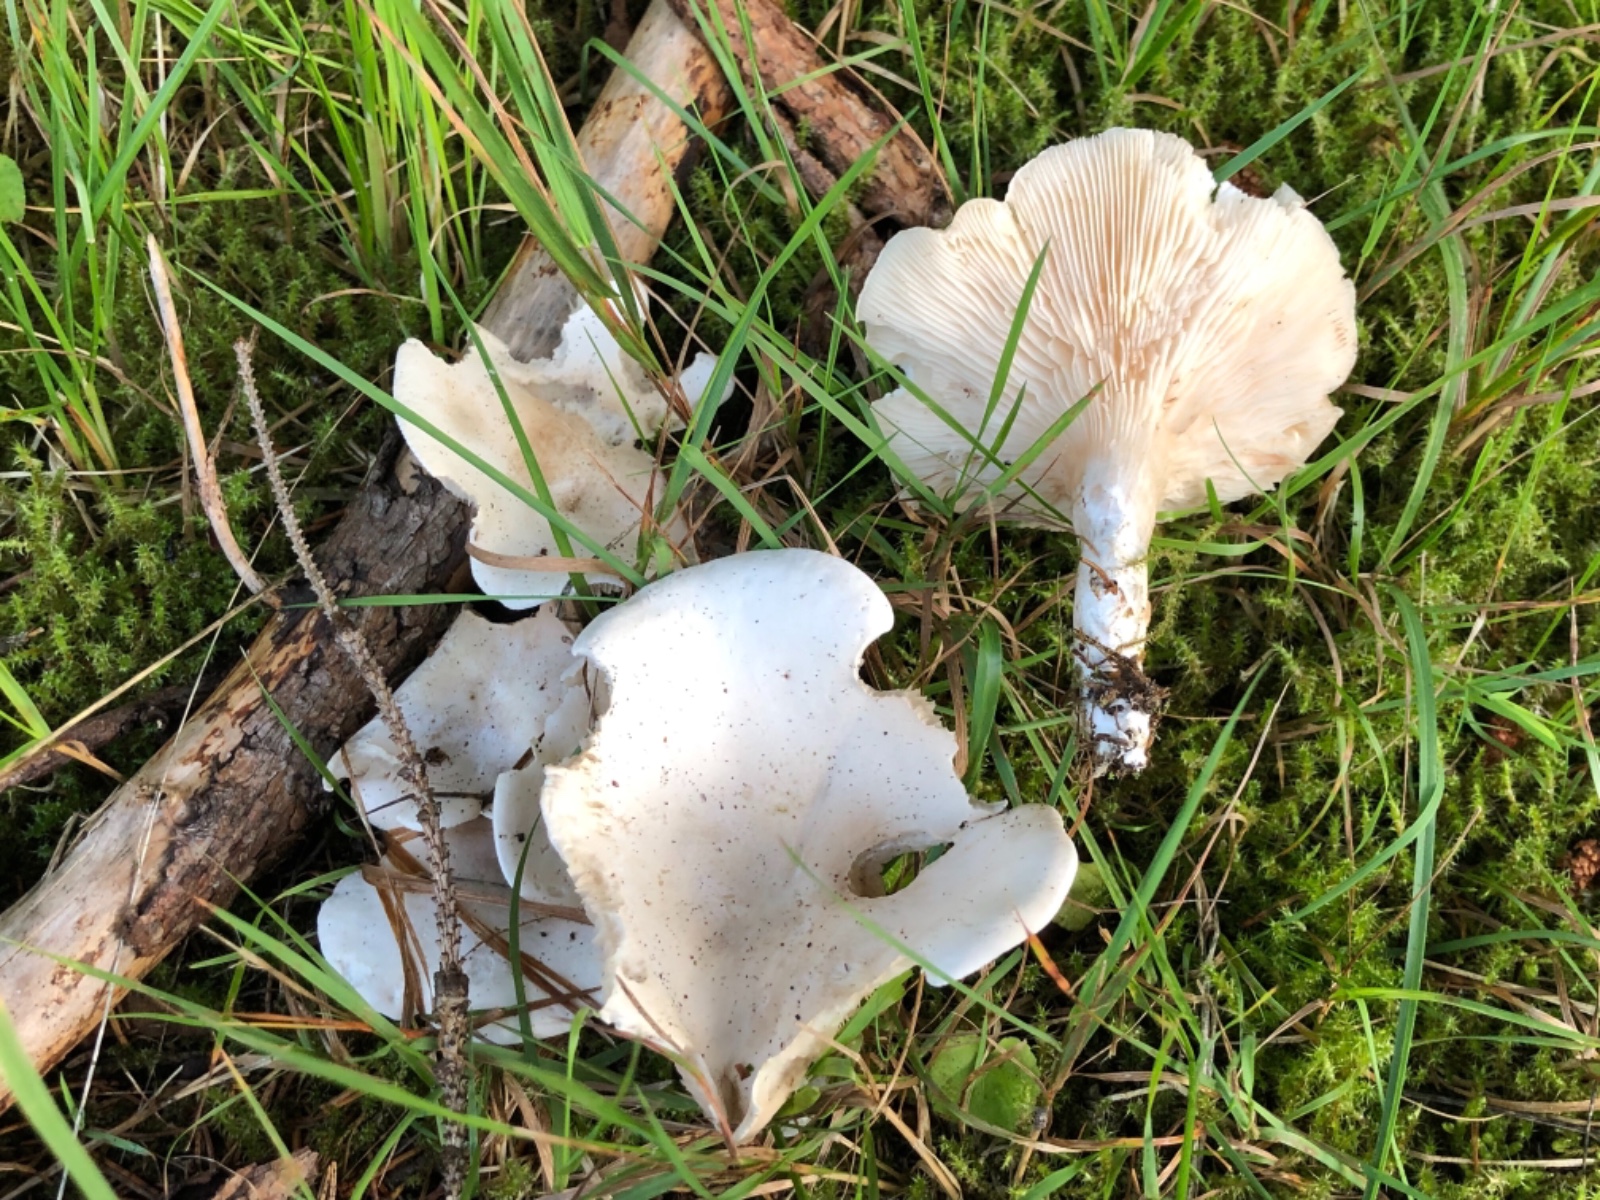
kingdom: Fungi
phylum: Basidiomycota
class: Agaricomycetes
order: Agaricales
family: Entolomataceae
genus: Clitopilus
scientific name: Clitopilus prunulus
